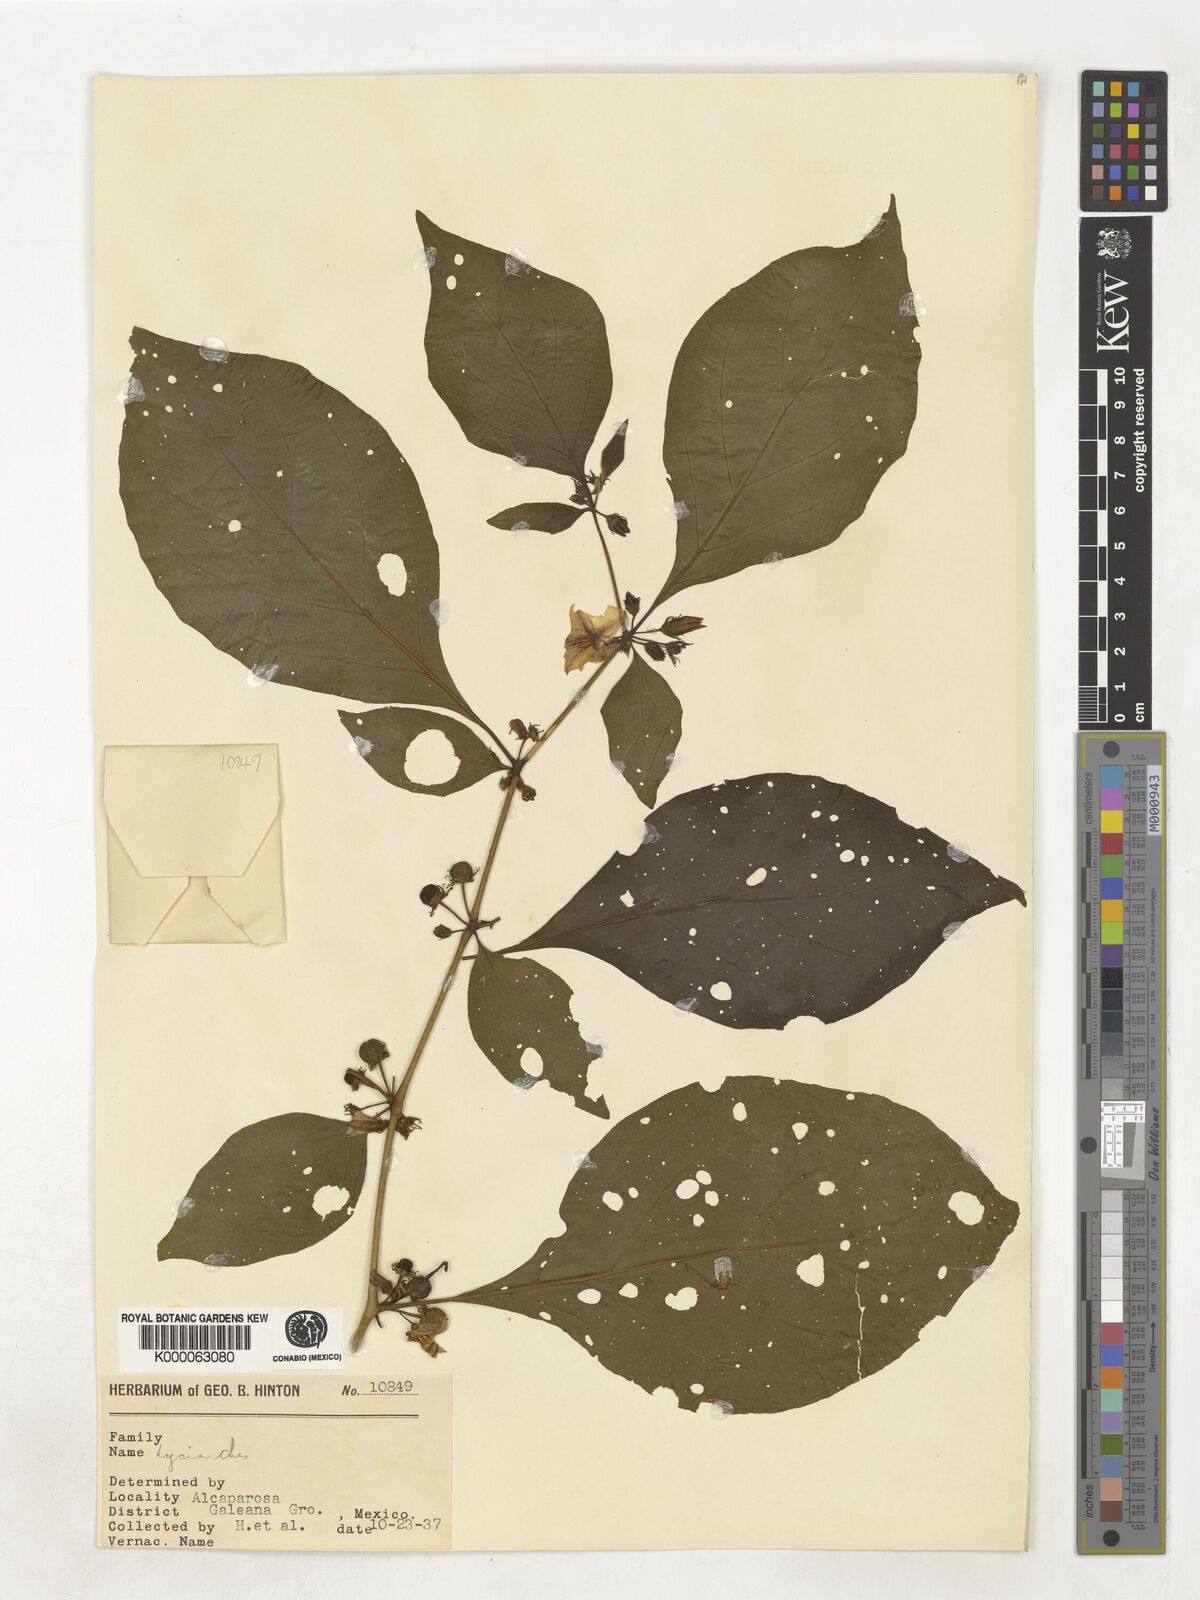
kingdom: Plantae
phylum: Tracheophyta
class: Magnoliopsida
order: Solanales
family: Solanaceae
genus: Lycianthes
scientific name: Lycianthes
